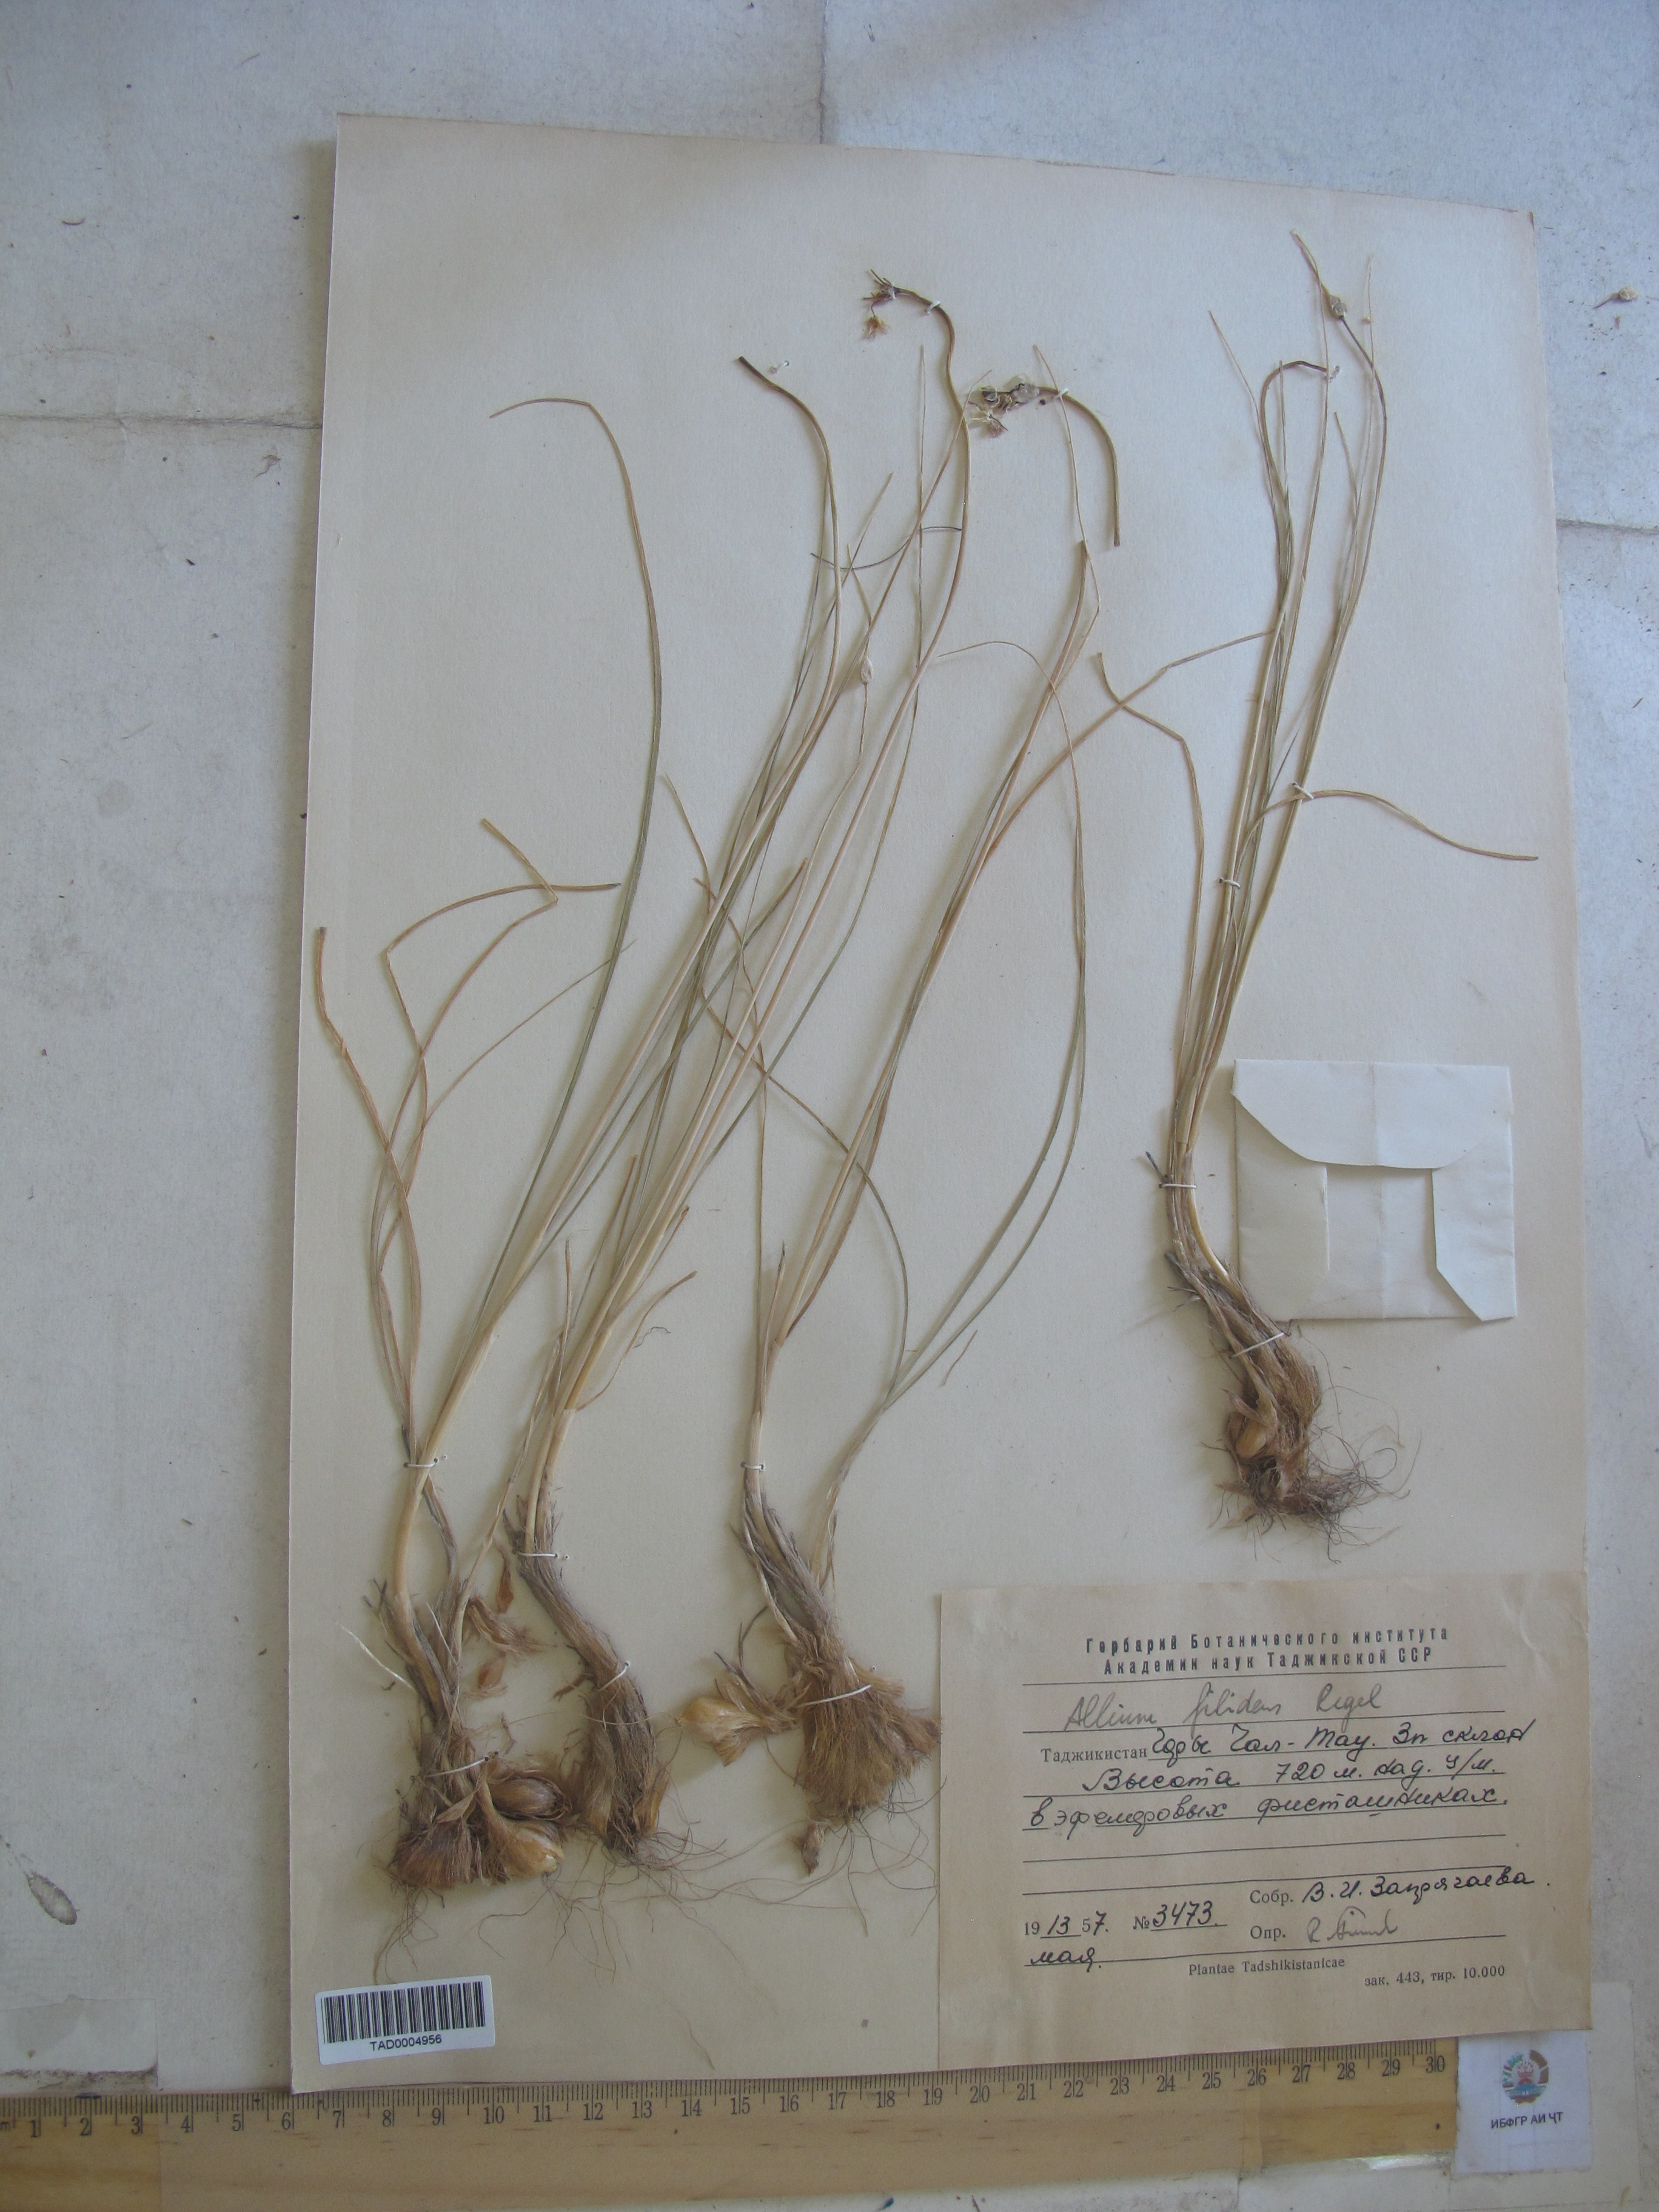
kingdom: Plantae
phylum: Tracheophyta
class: Liliopsida
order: Asparagales
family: Amaryllidaceae
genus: Allium
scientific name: Allium filidens
